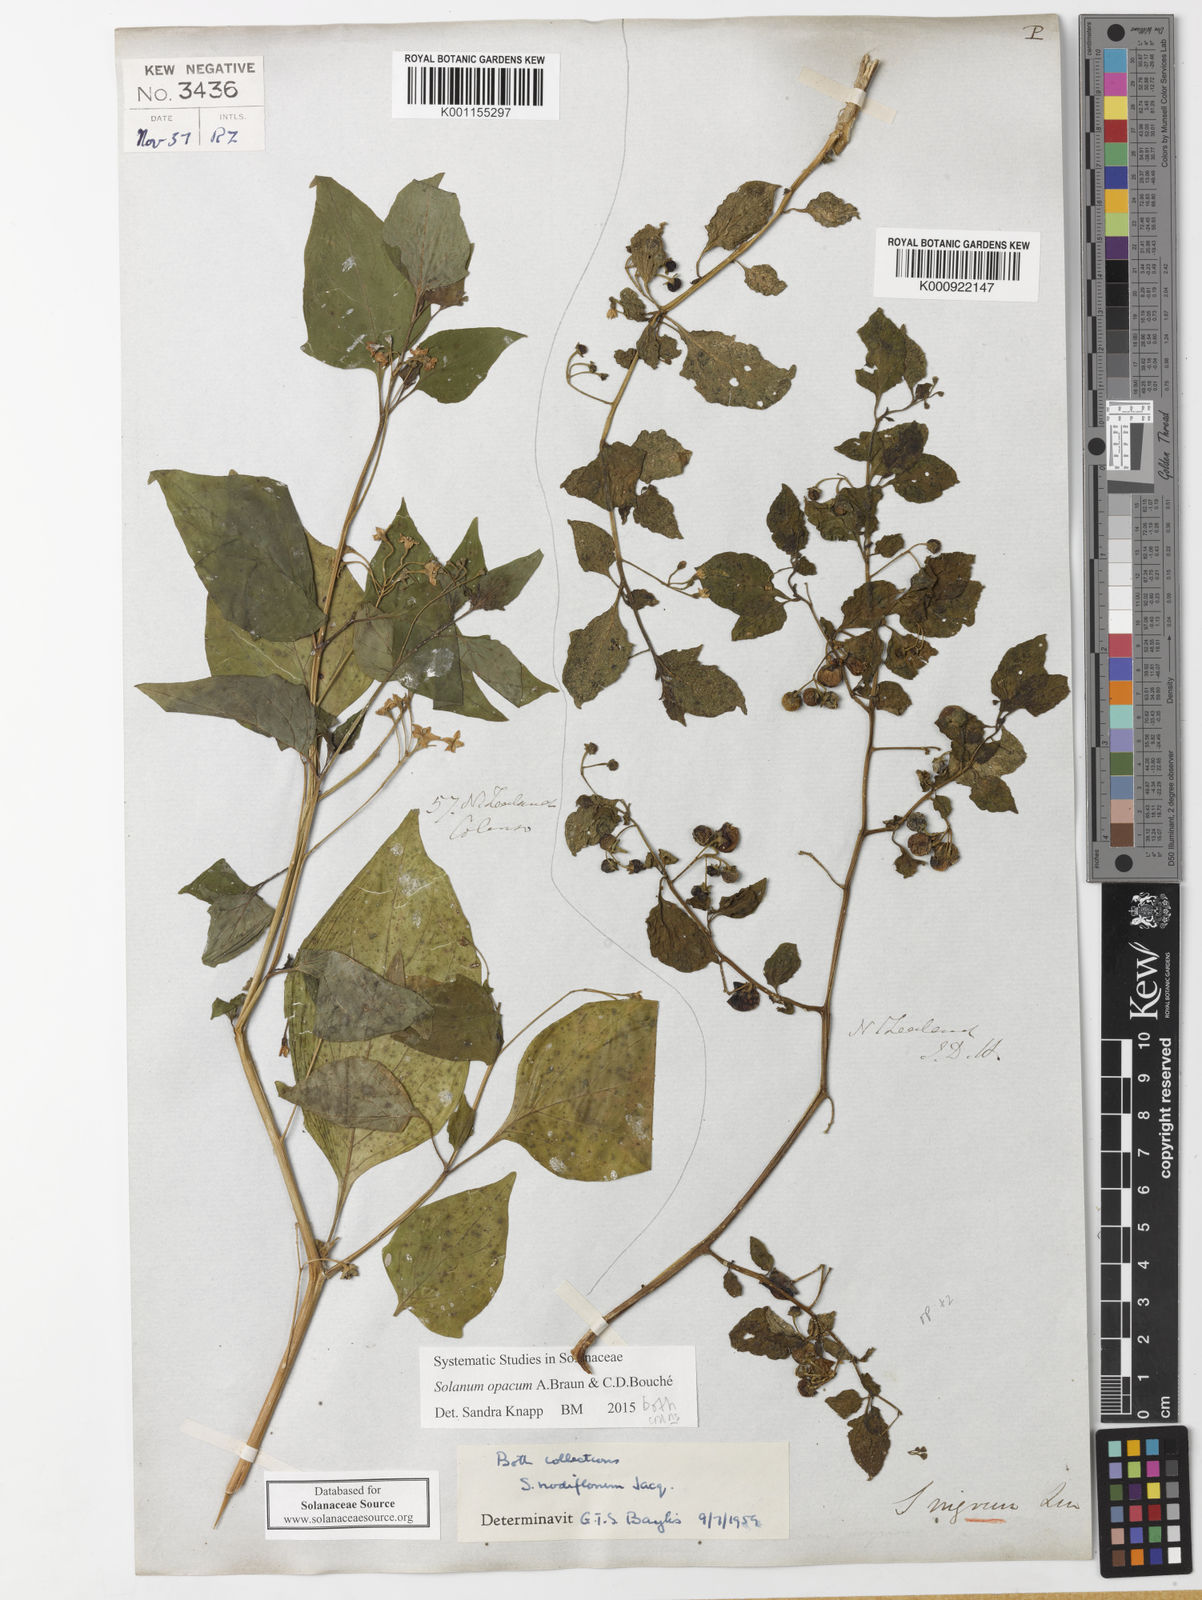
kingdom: Plantae
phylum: Tracheophyta
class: Magnoliopsida
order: Solanales
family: Solanaceae
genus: Solanum
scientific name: Solanum
